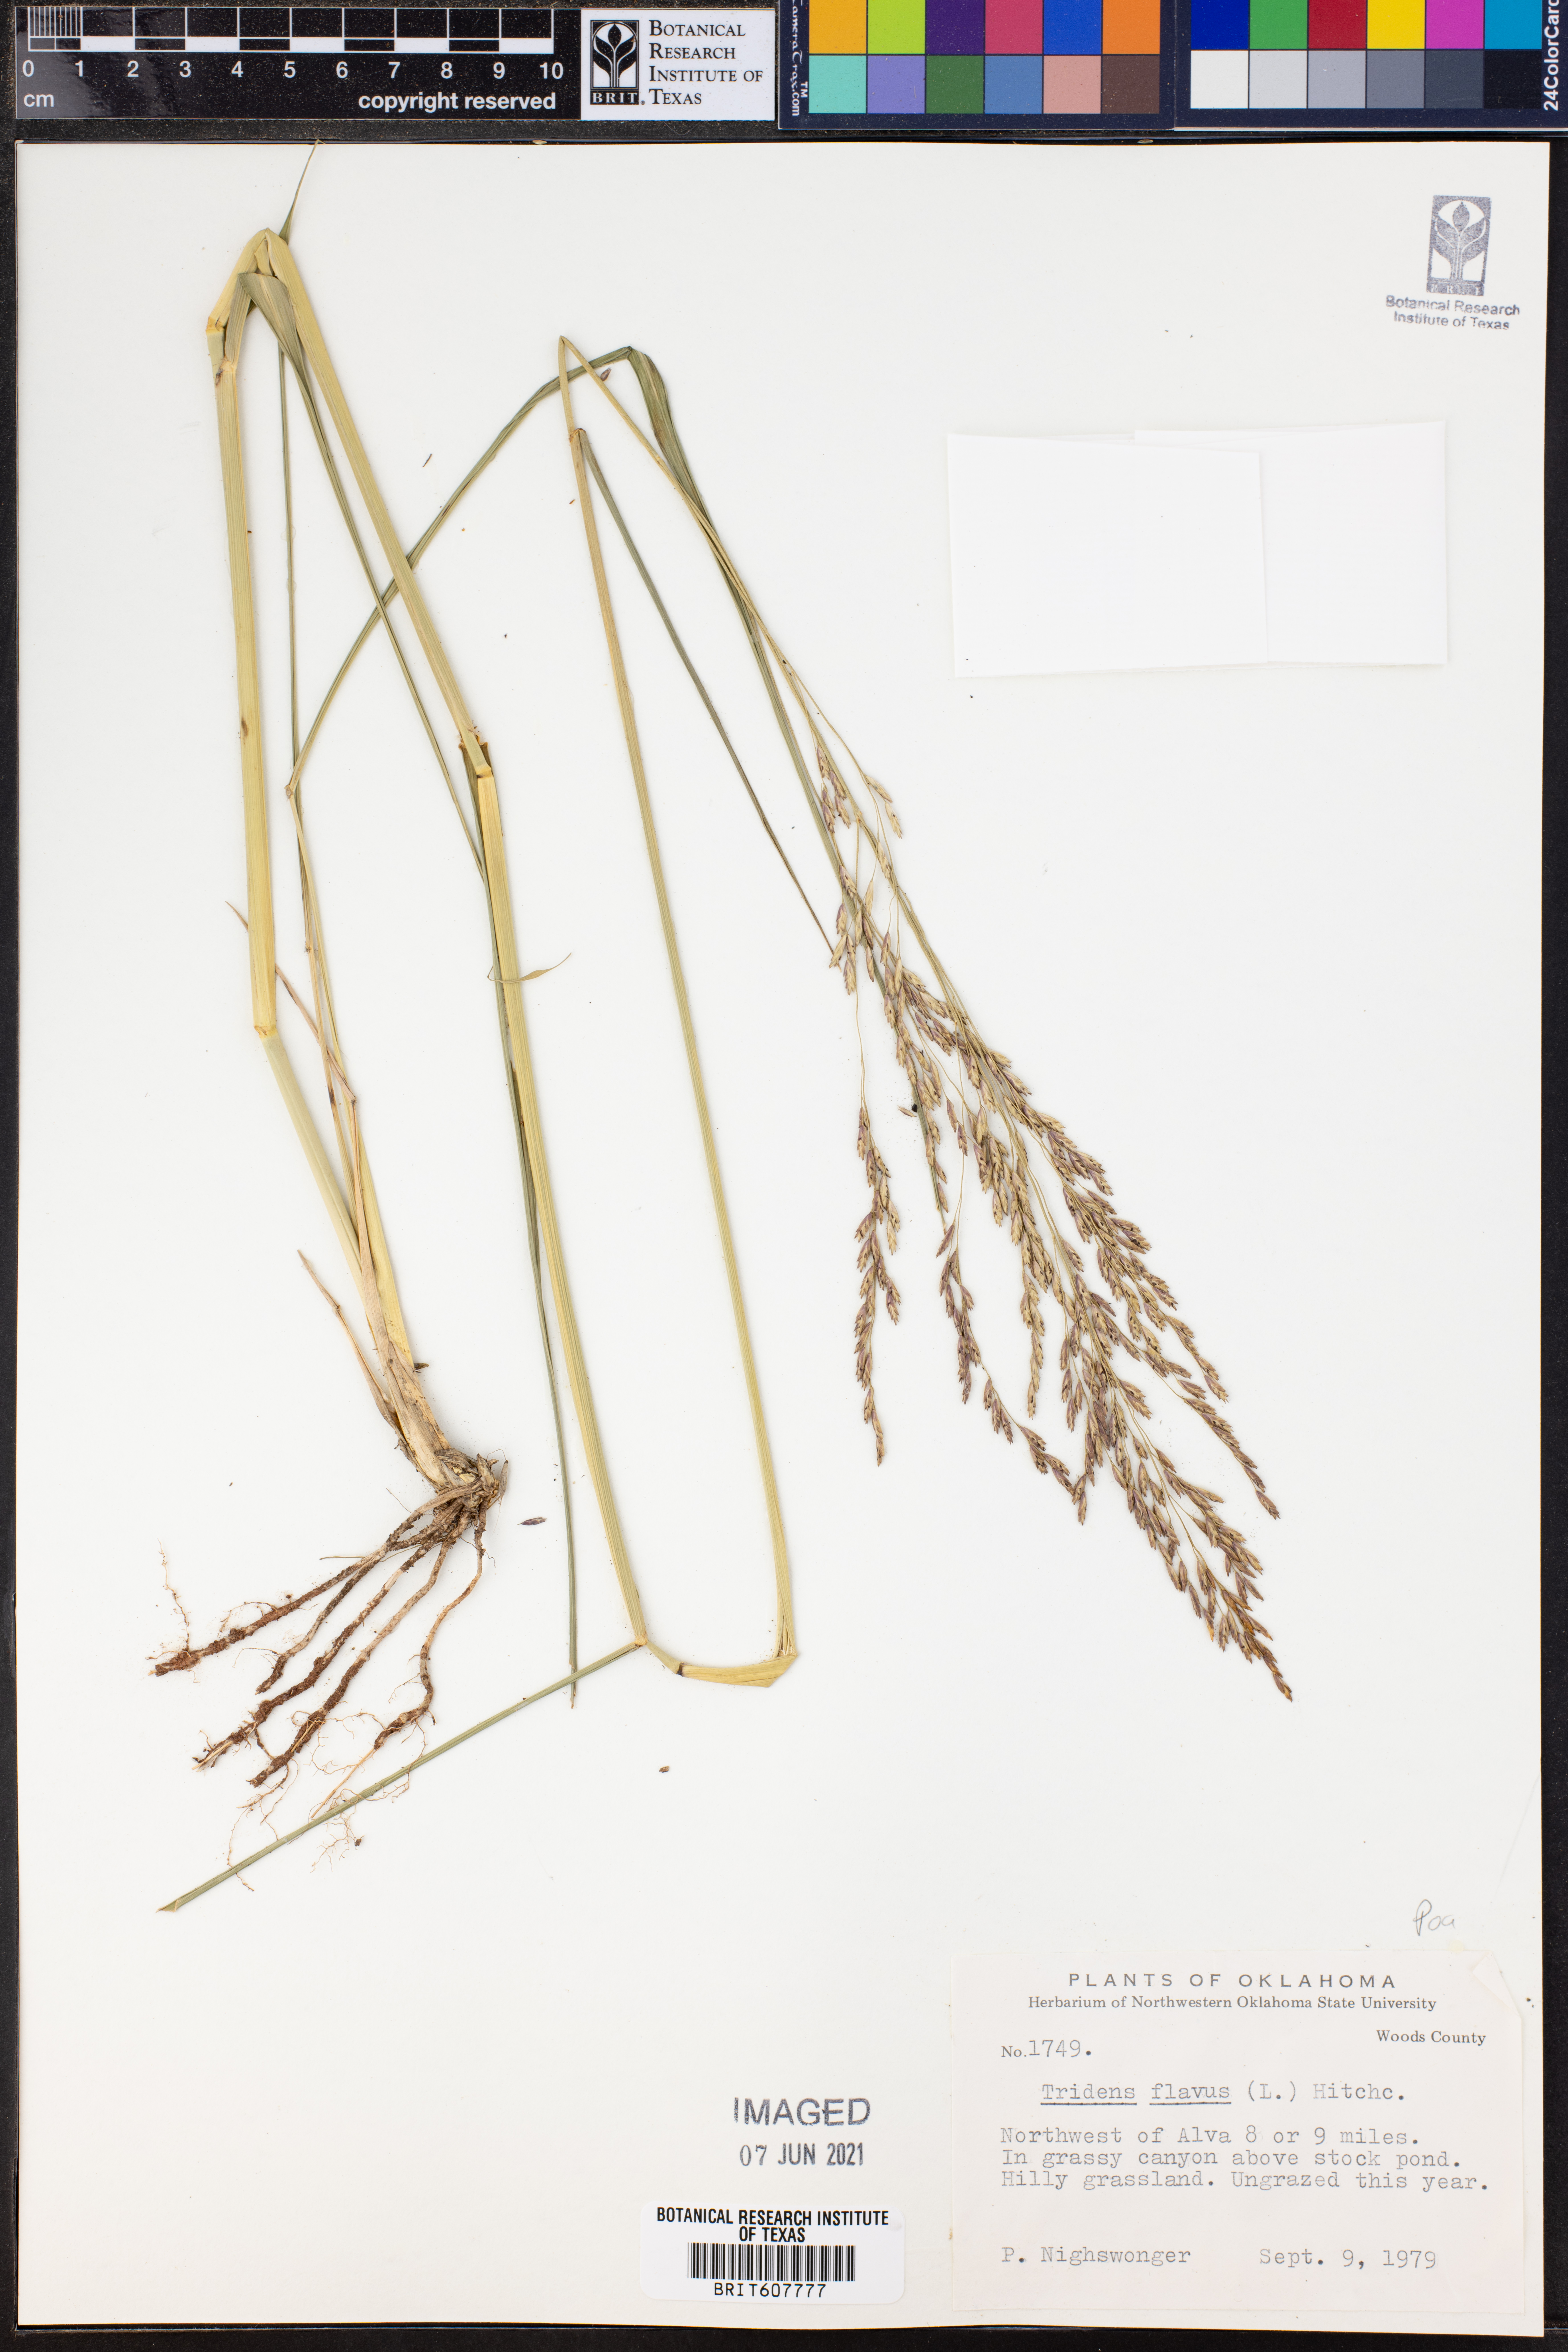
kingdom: Plantae
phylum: Tracheophyta
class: Liliopsida
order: Poales
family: Poaceae
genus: Tridens
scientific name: Tridens flavus
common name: Purpletop
